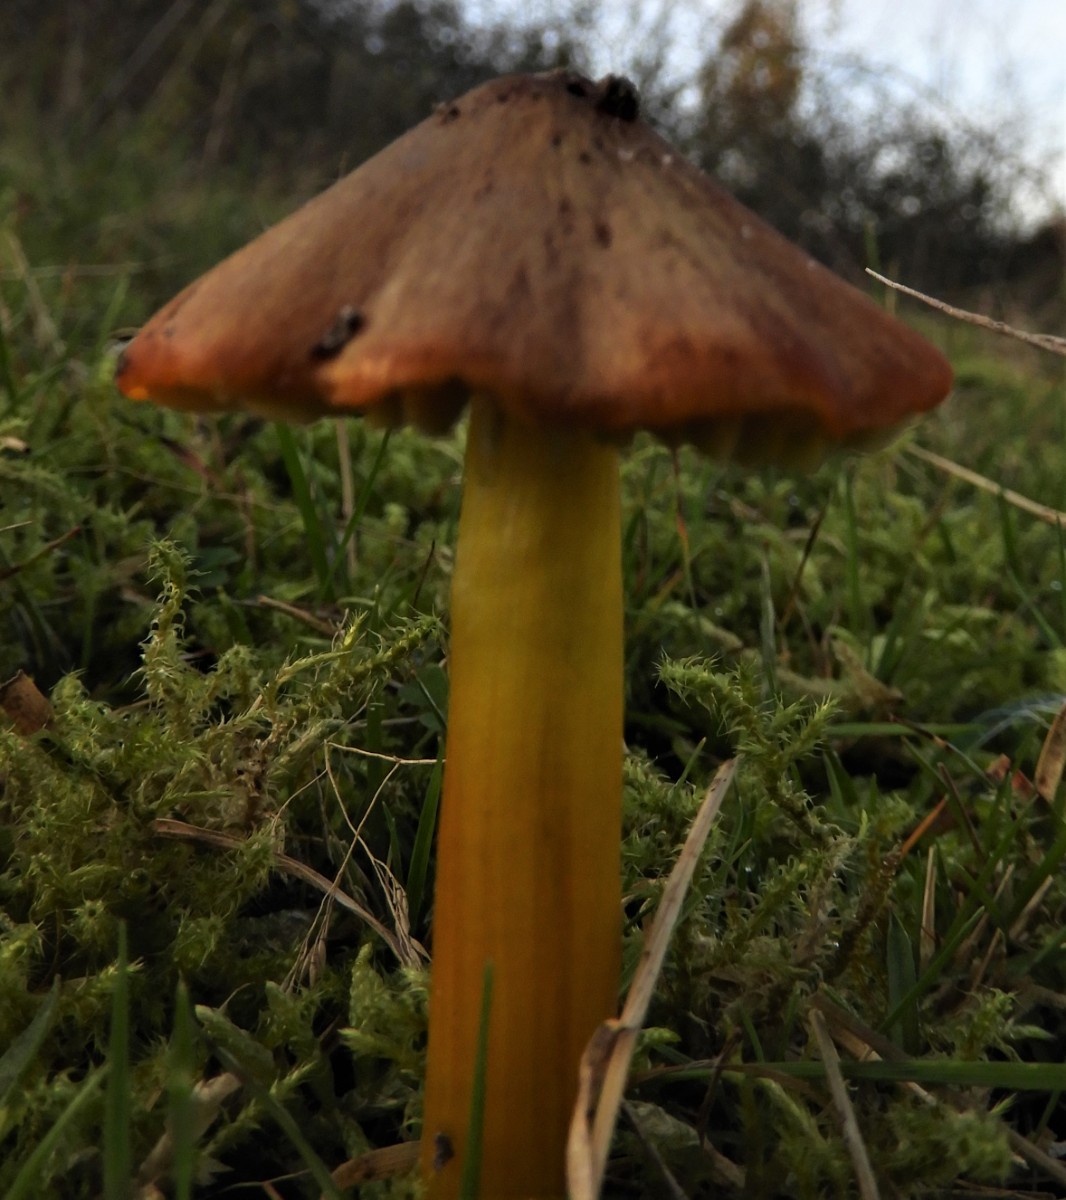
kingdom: Fungi
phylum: Basidiomycota
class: Agaricomycetes
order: Agaricales
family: Hygrophoraceae
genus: Hygrocybe
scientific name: Hygrocybe conica
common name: kegle-vokshat
